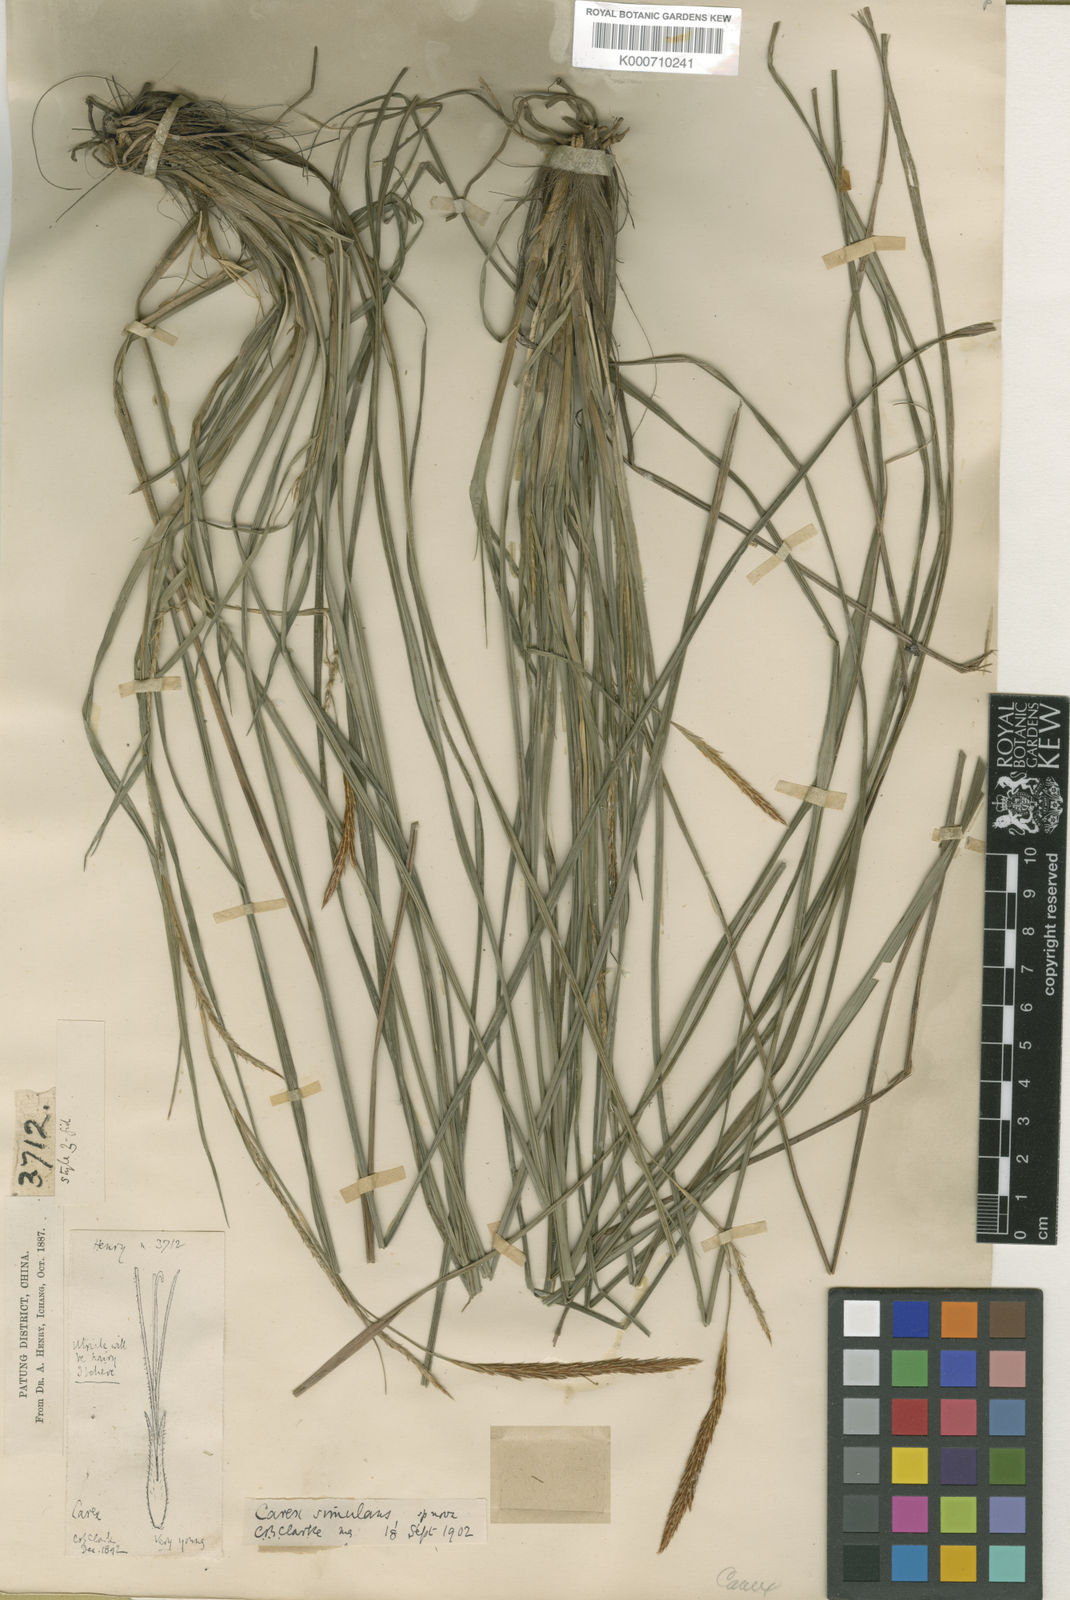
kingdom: Plantae
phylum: Tracheophyta
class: Liliopsida
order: Poales
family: Cyperaceae
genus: Carex
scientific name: Carex simulans
